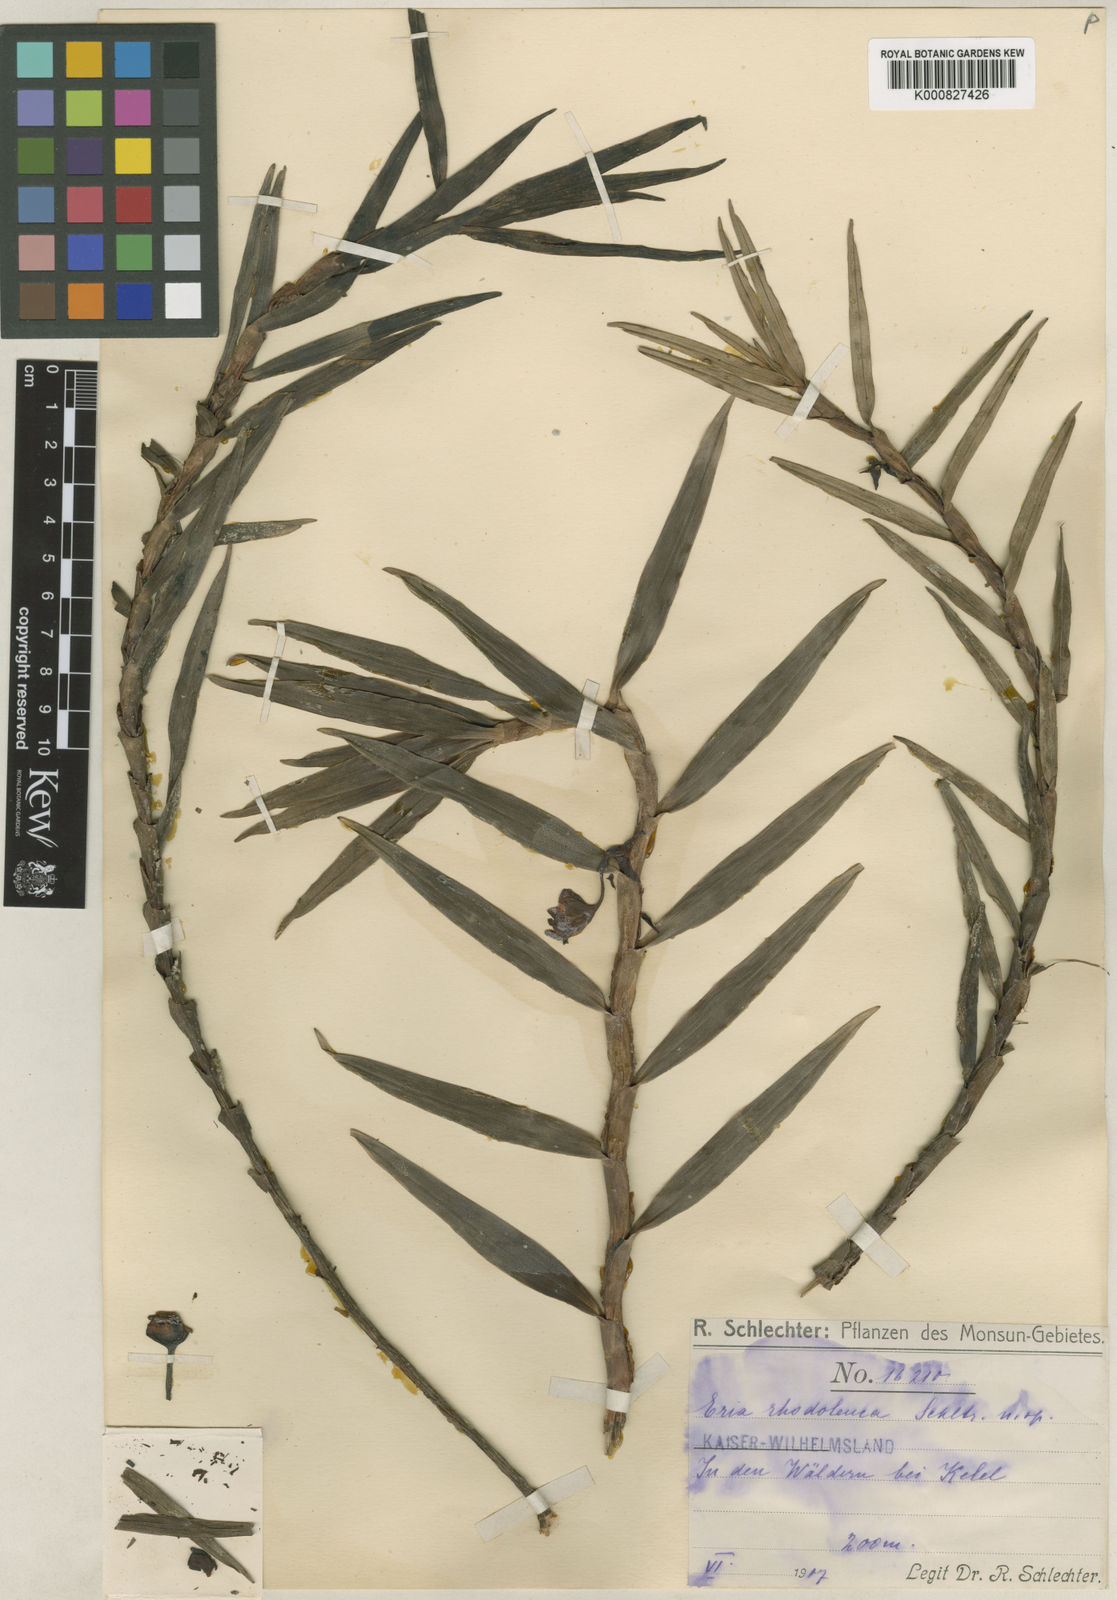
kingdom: Plantae
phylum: Tracheophyta
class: Liliopsida
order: Asparagales
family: Orchidaceae
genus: Cylindrolobus
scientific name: Cylindrolobus rhodoleucus
